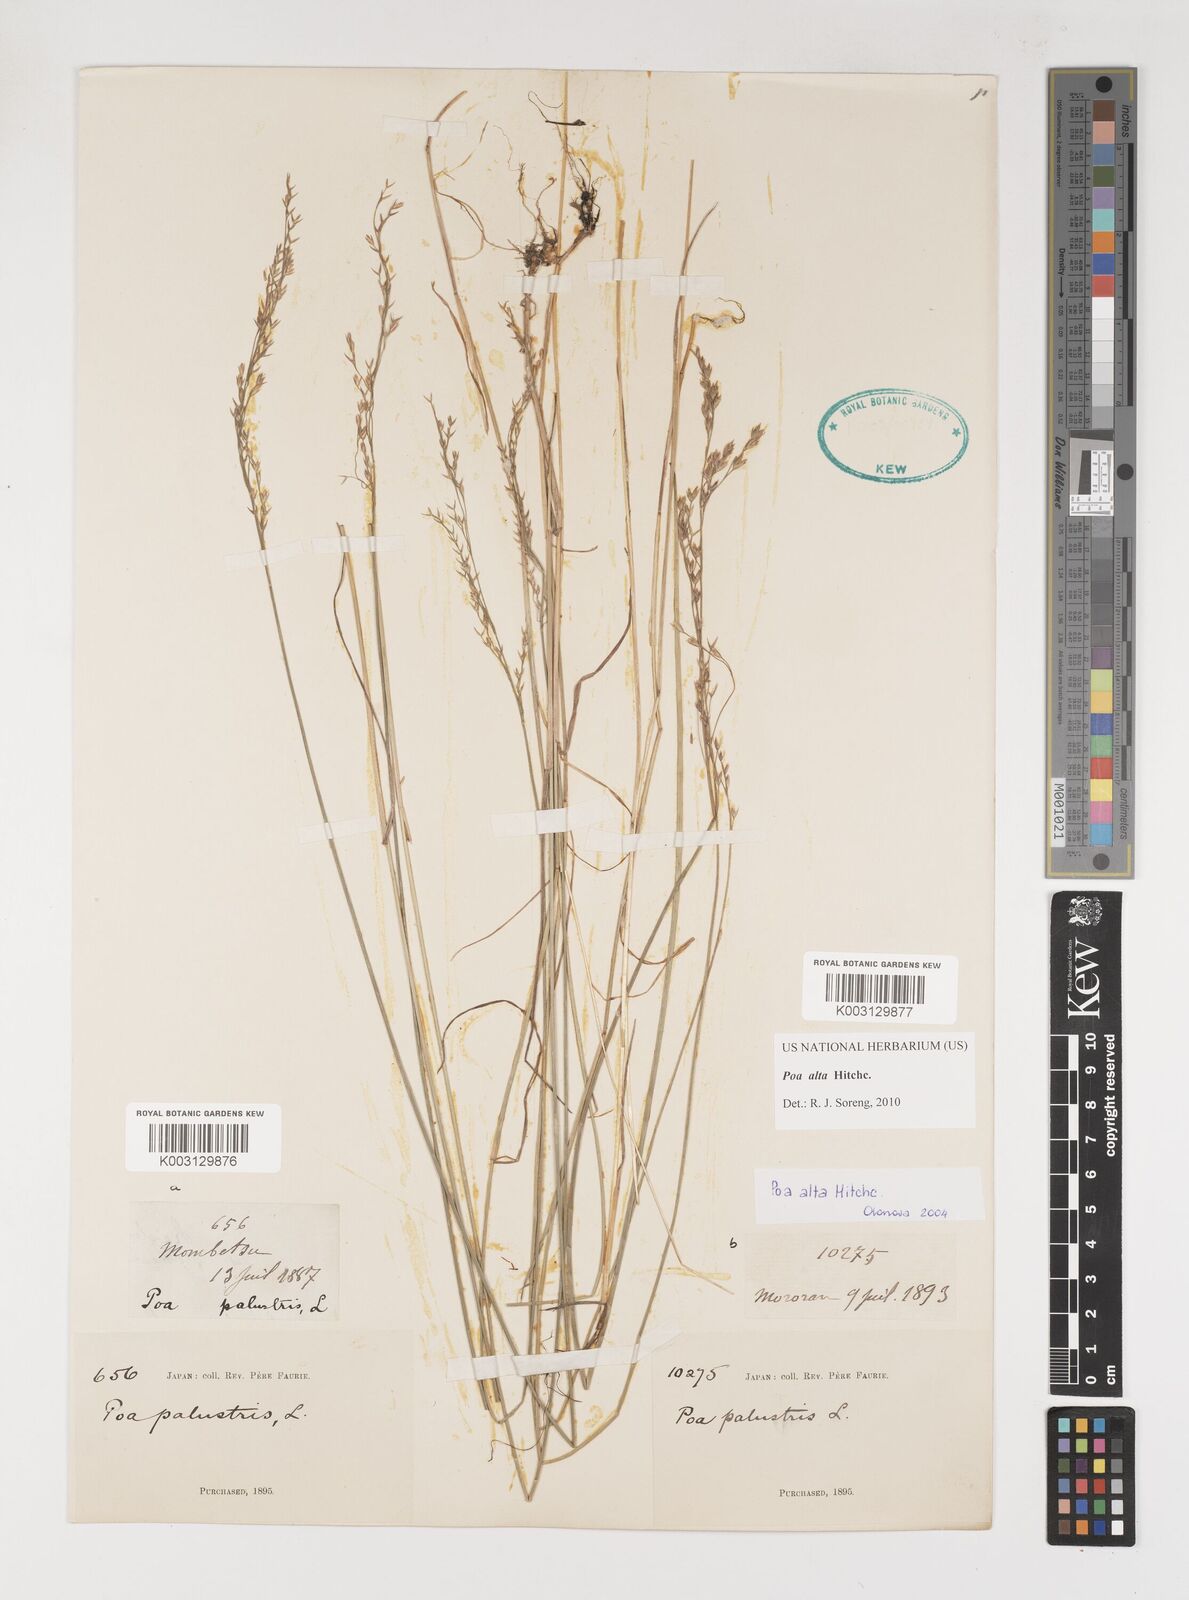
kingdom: Plantae
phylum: Tracheophyta
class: Liliopsida
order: Poales
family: Poaceae
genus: Poa
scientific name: Poa alta
